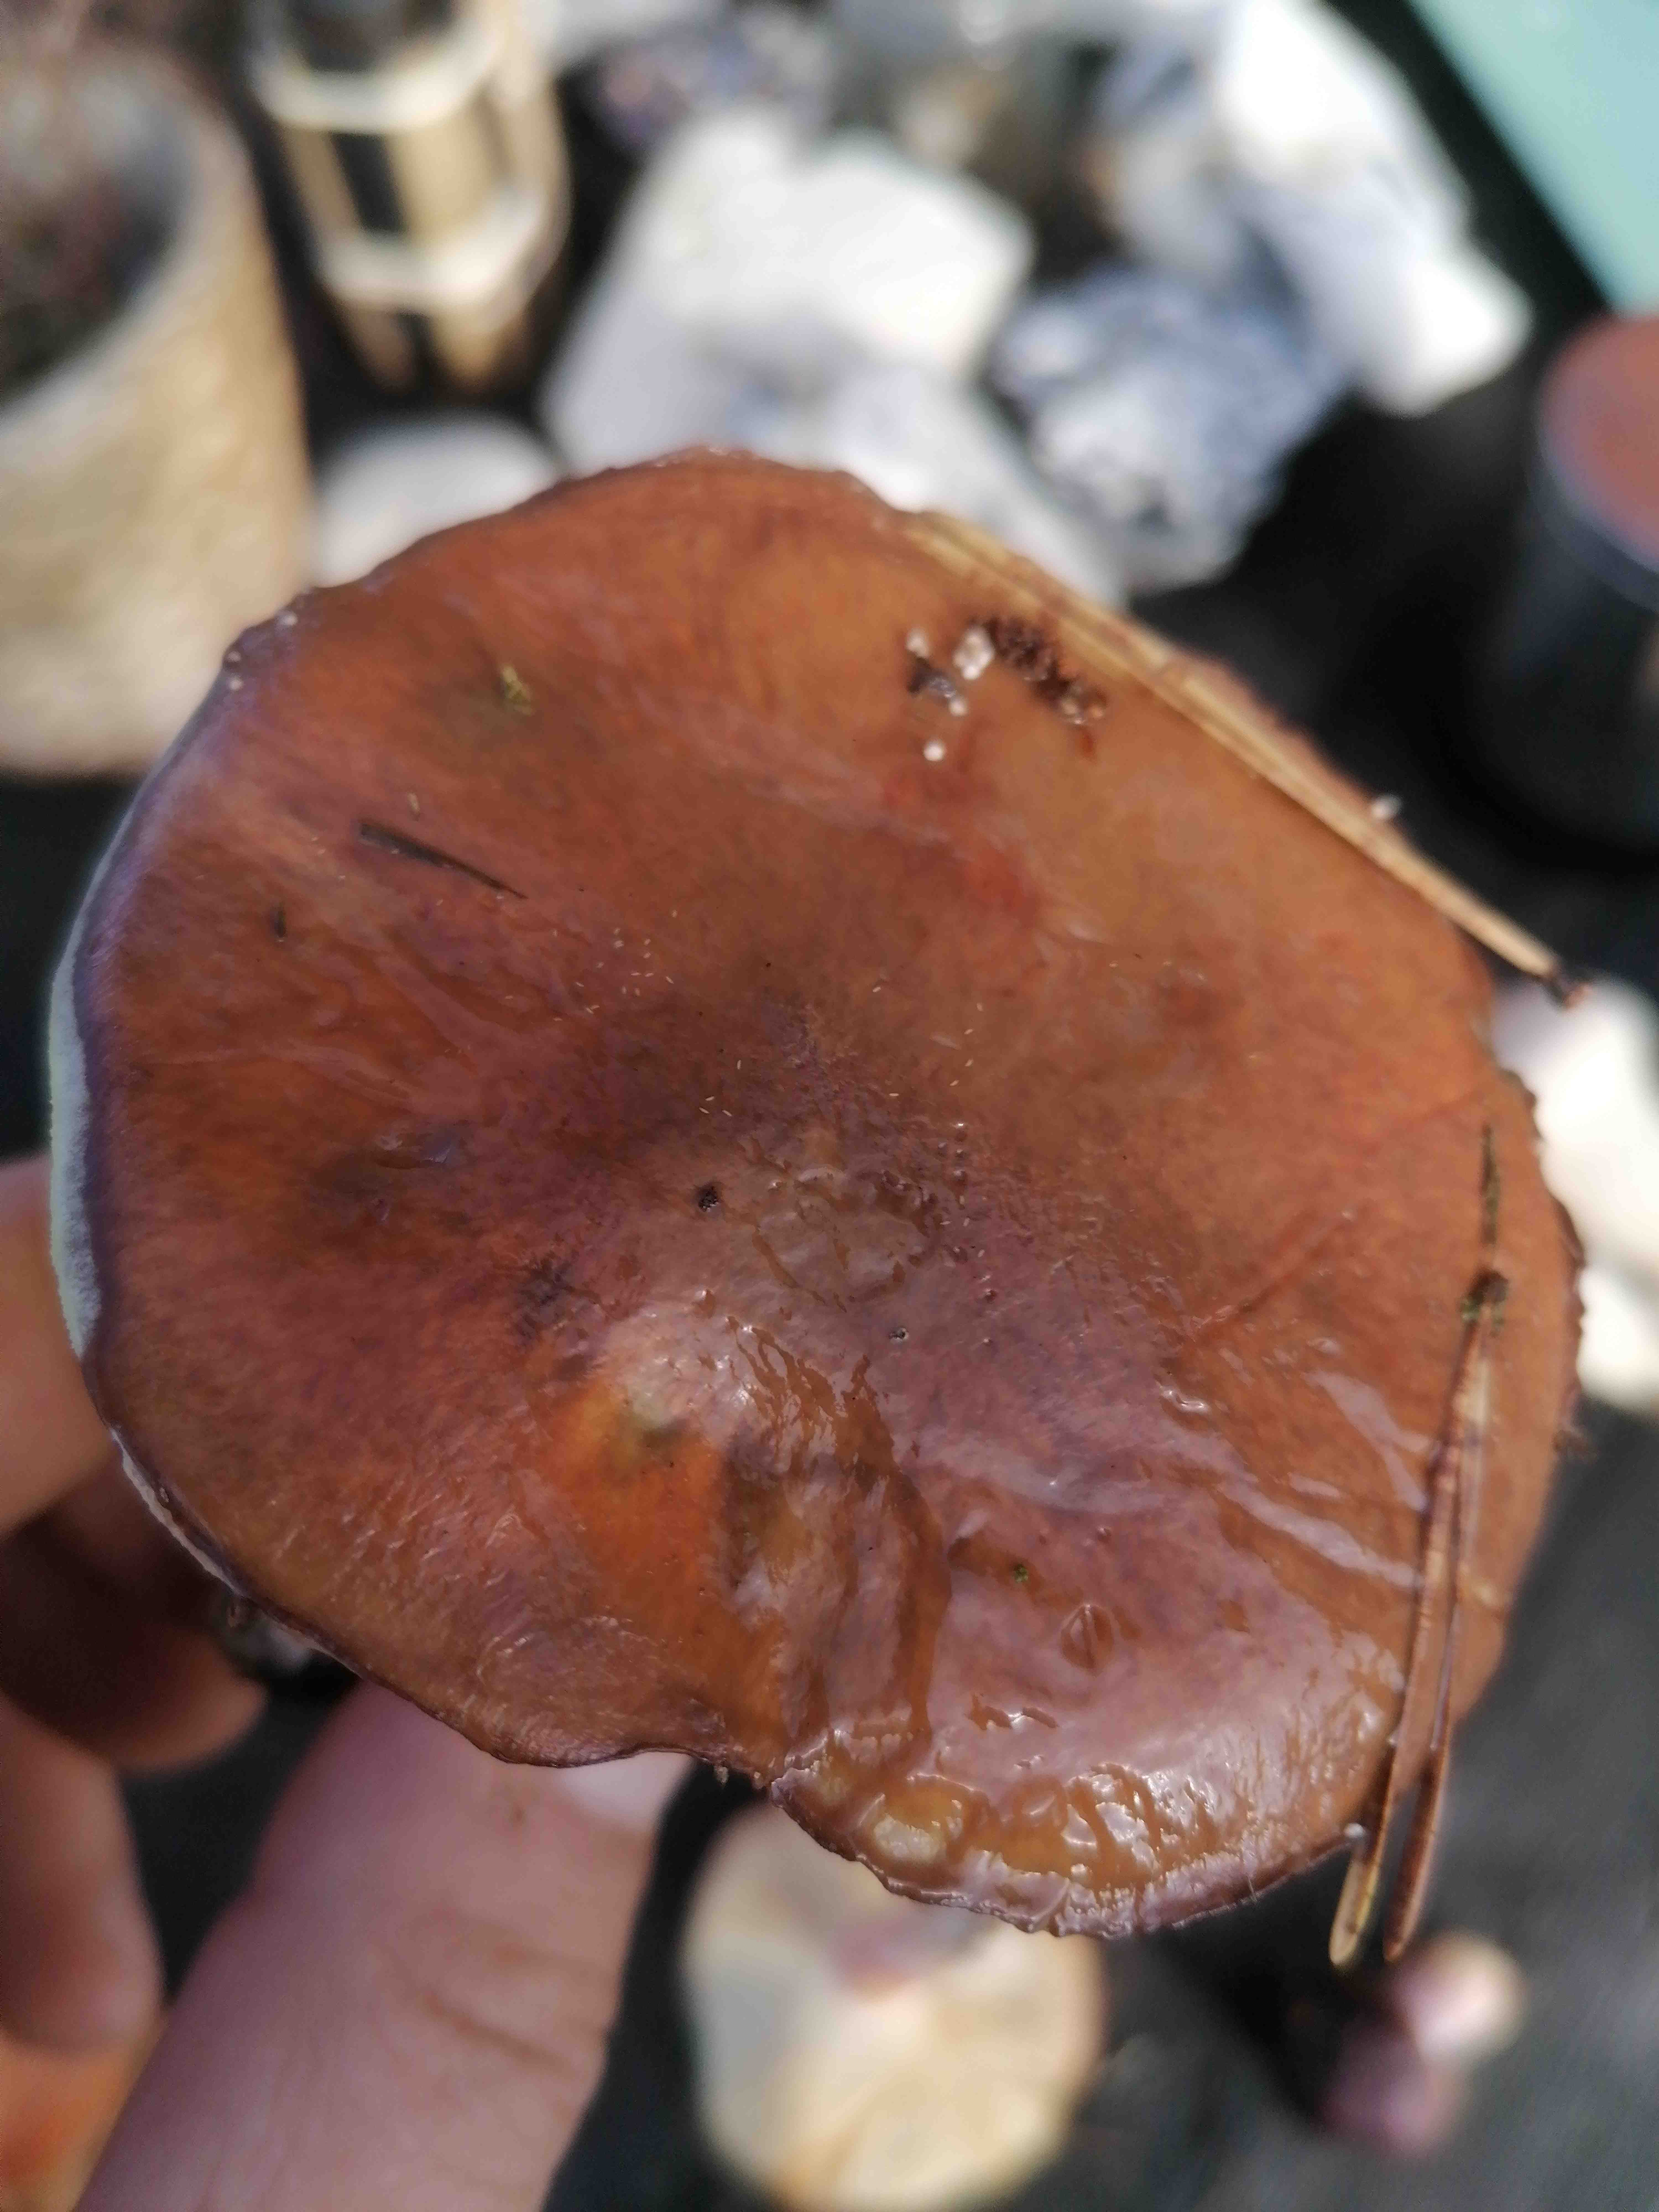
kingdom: Fungi
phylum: Basidiomycota
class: Agaricomycetes
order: Boletales
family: Suillaceae
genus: Suillus
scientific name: Suillus luteus
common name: brungul slimrørhat
